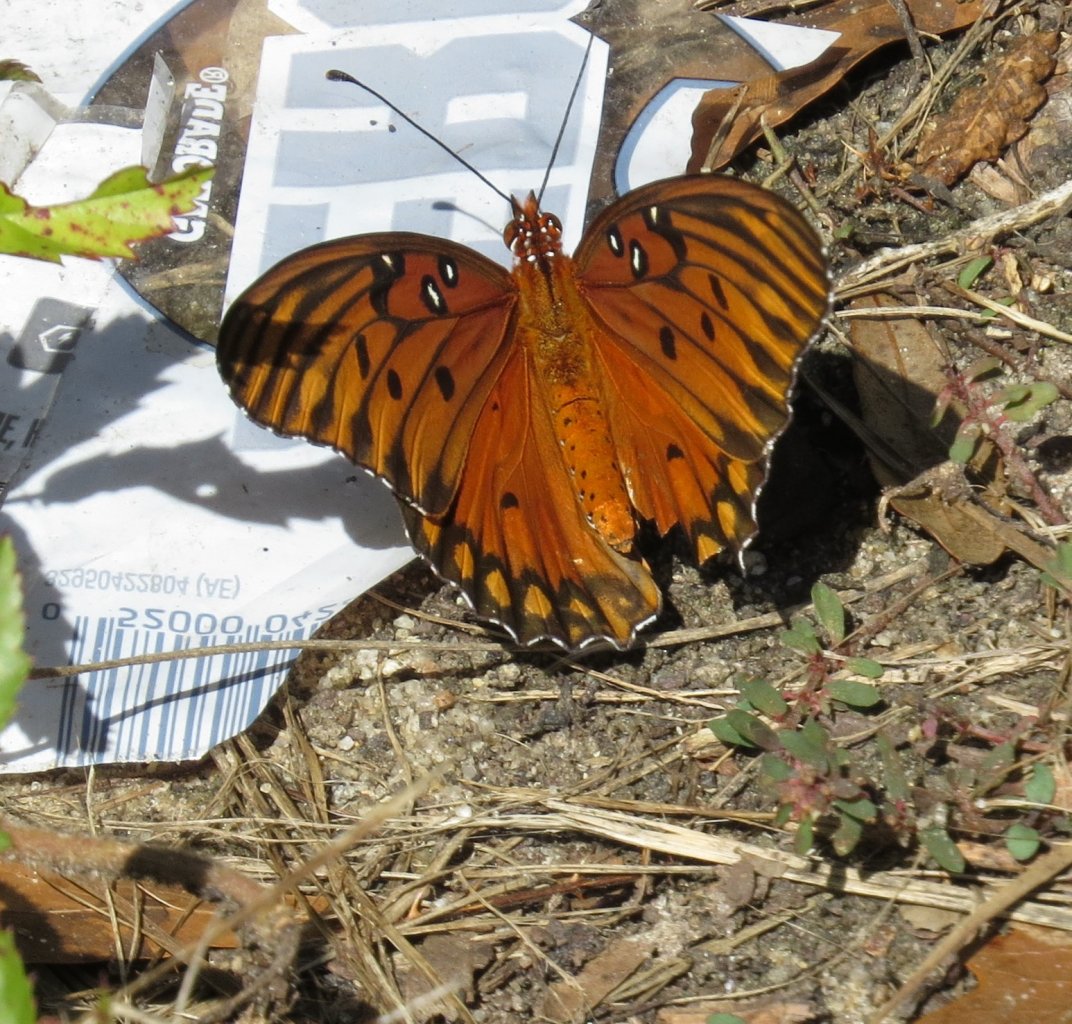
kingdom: Animalia
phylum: Arthropoda
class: Insecta
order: Lepidoptera
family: Nymphalidae
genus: Dione
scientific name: Dione vanillae
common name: Gulf Fritillary
